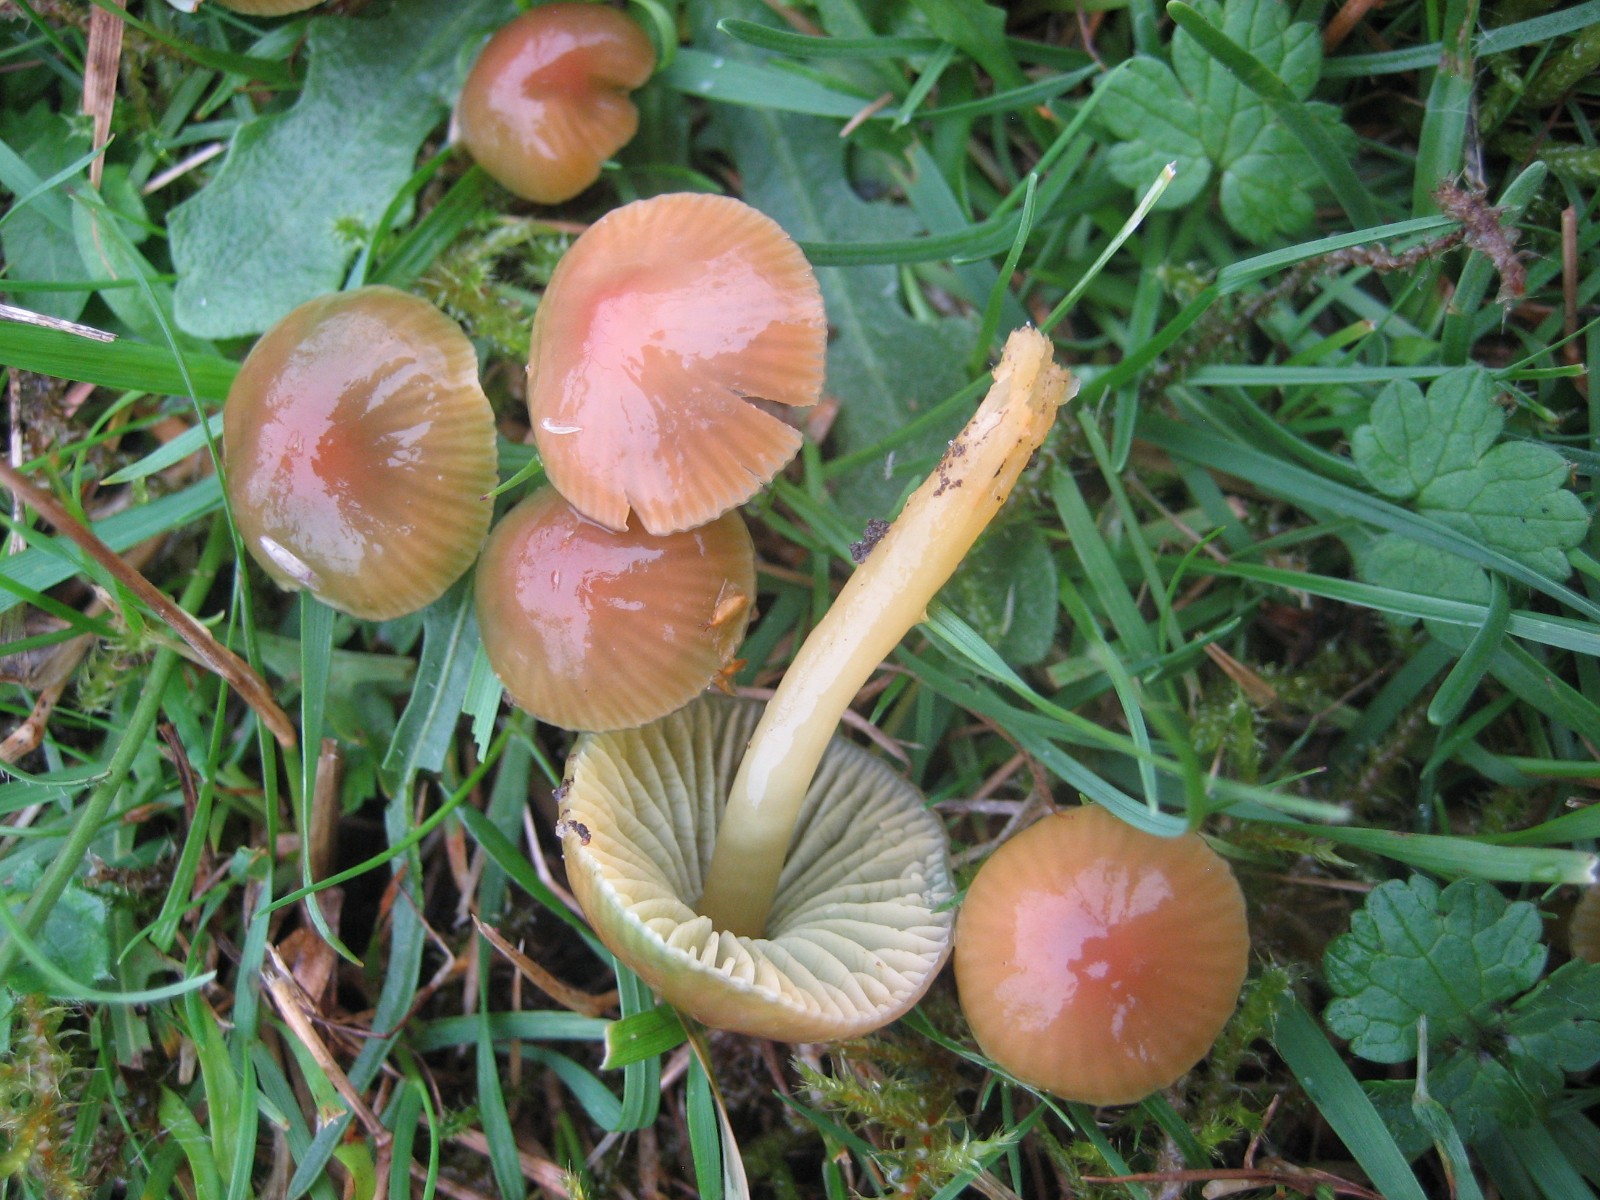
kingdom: Fungi
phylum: Basidiomycota
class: Agaricomycetes
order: Agaricales
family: Hygrophoraceae
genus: Gliophorus
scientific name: Gliophorus psittacinus
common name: papegøje-vokshat
